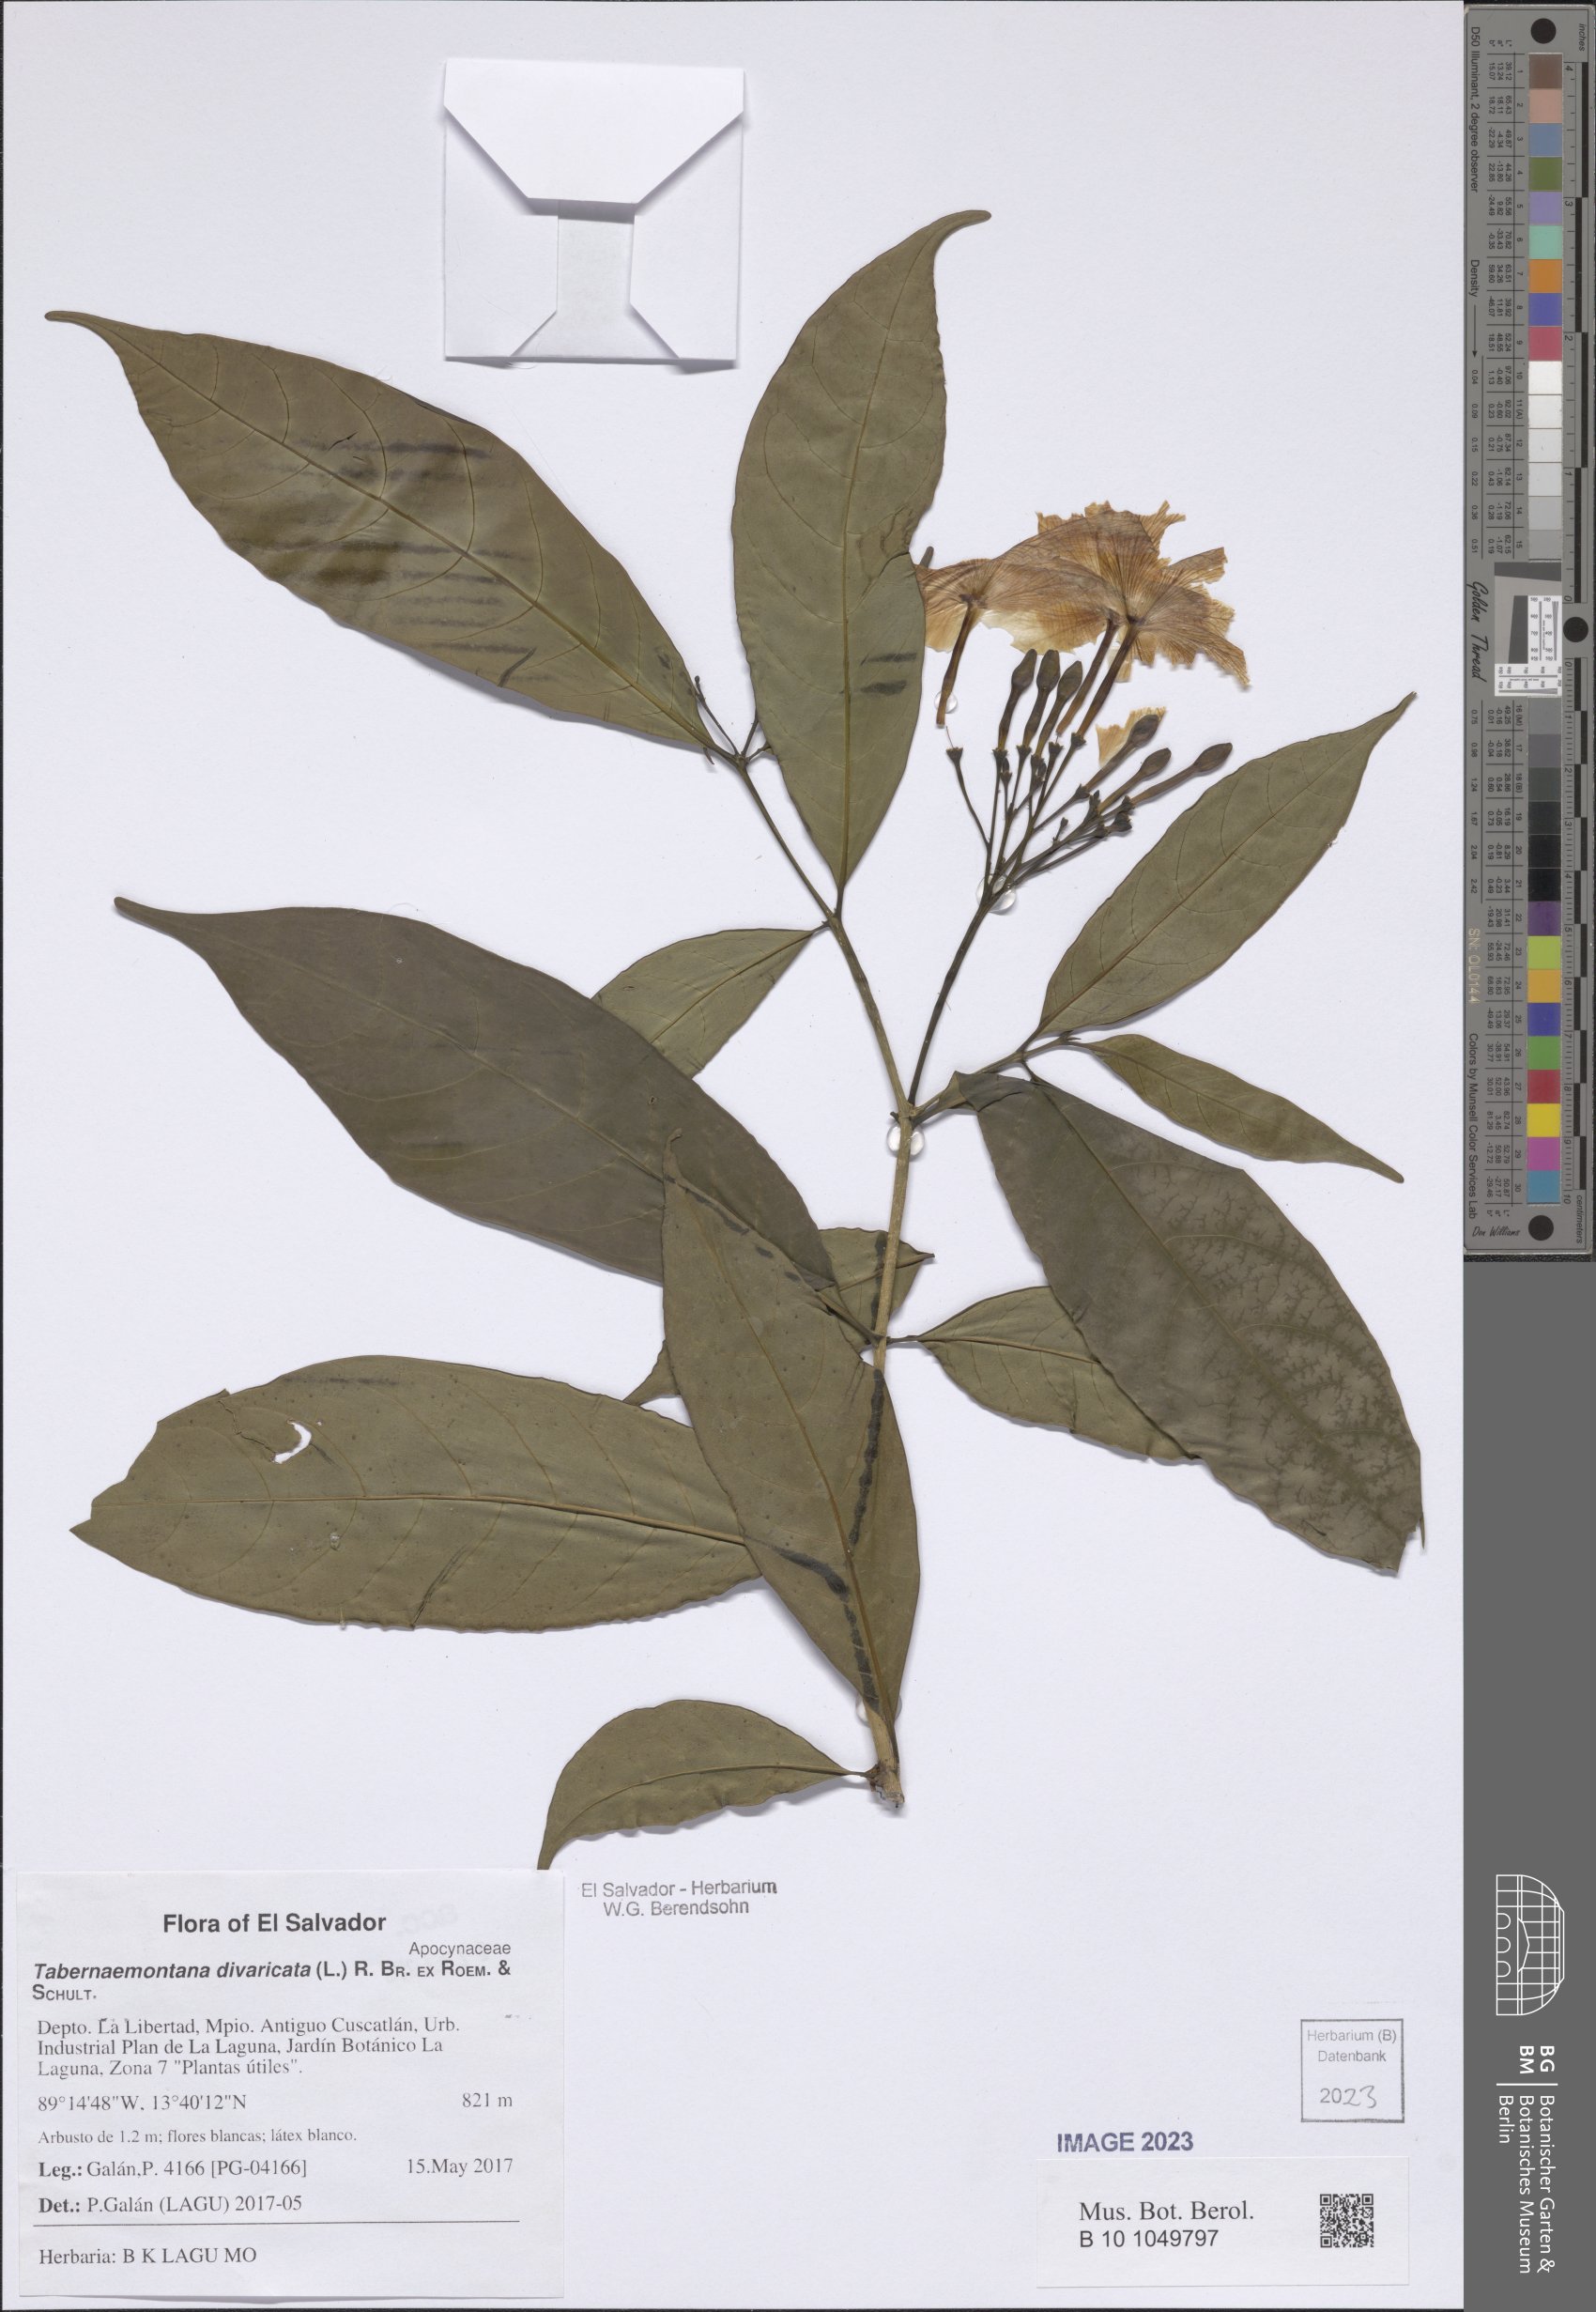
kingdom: Plantae
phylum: Tracheophyta
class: Magnoliopsida
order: Gentianales
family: Apocynaceae
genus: Tabernaemontana
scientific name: Tabernaemontana divaricata
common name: Pinwheelflower
